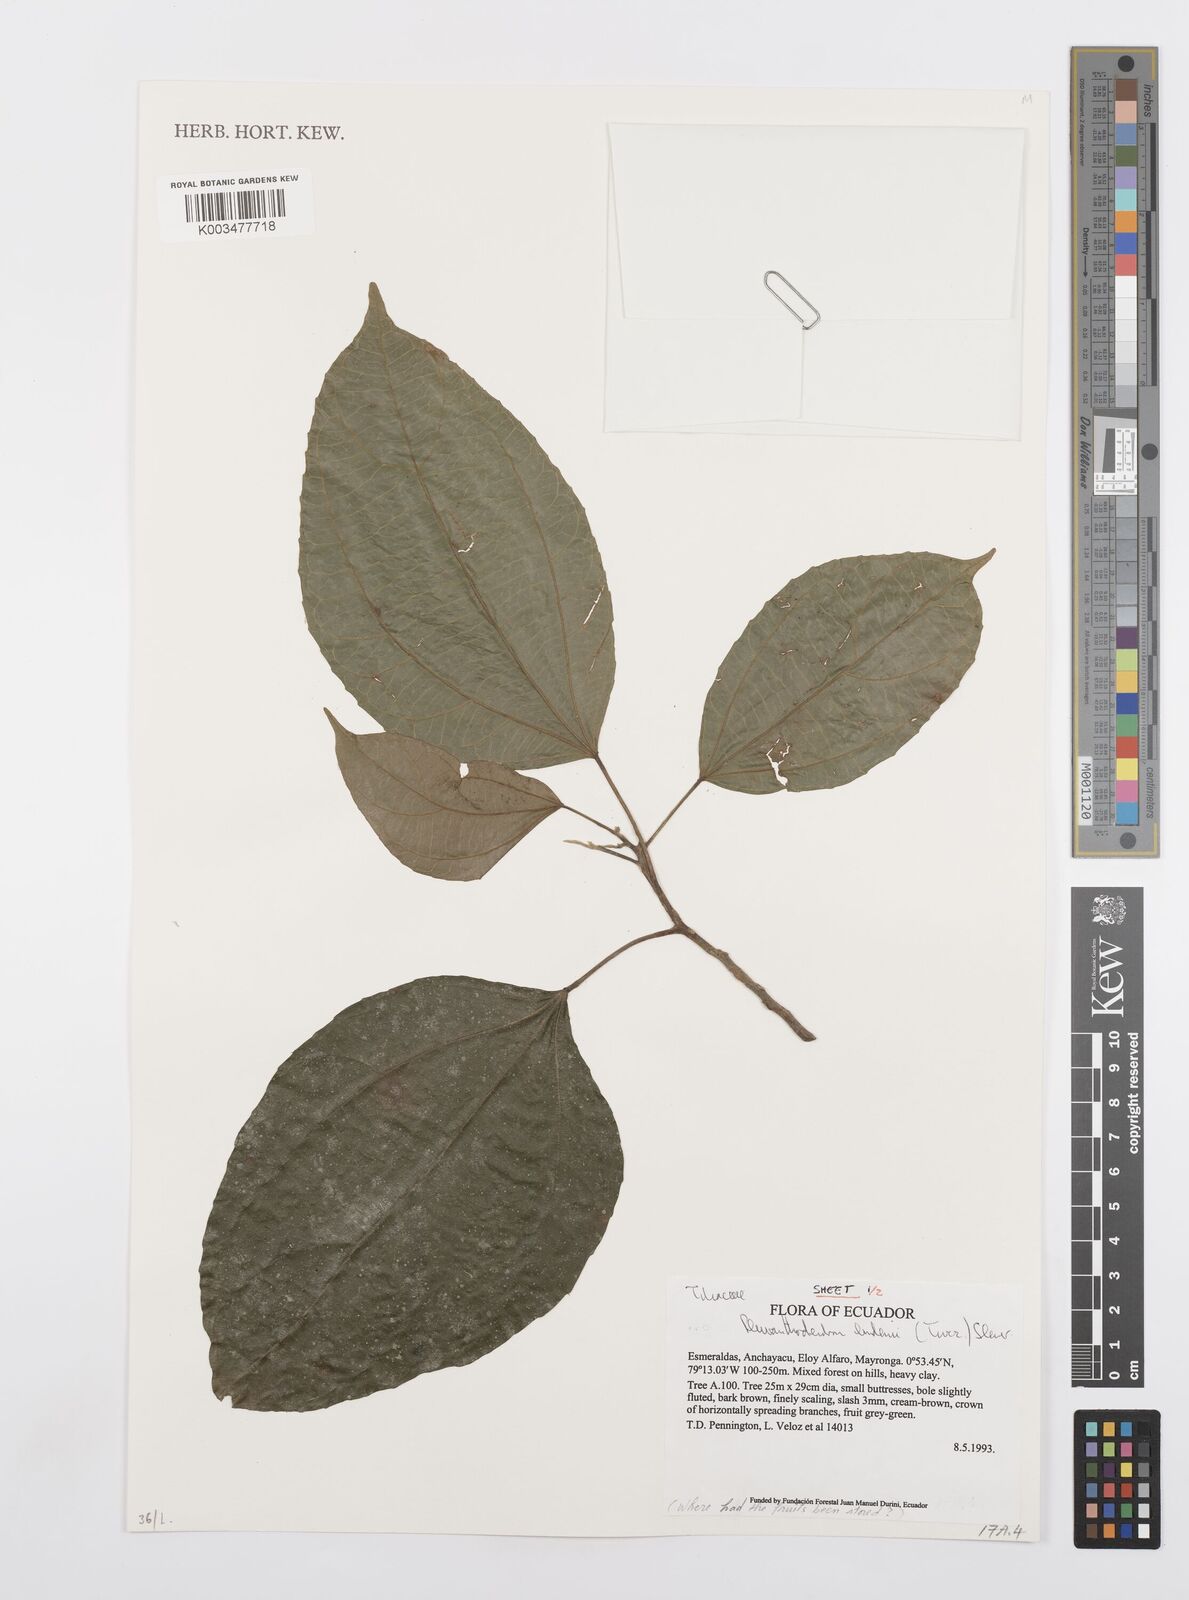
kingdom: Plantae
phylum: Tracheophyta
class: Magnoliopsida
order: Malpighiales
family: Salicaceae
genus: Pleuranthodendron
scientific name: Pleuranthodendron lindenii
